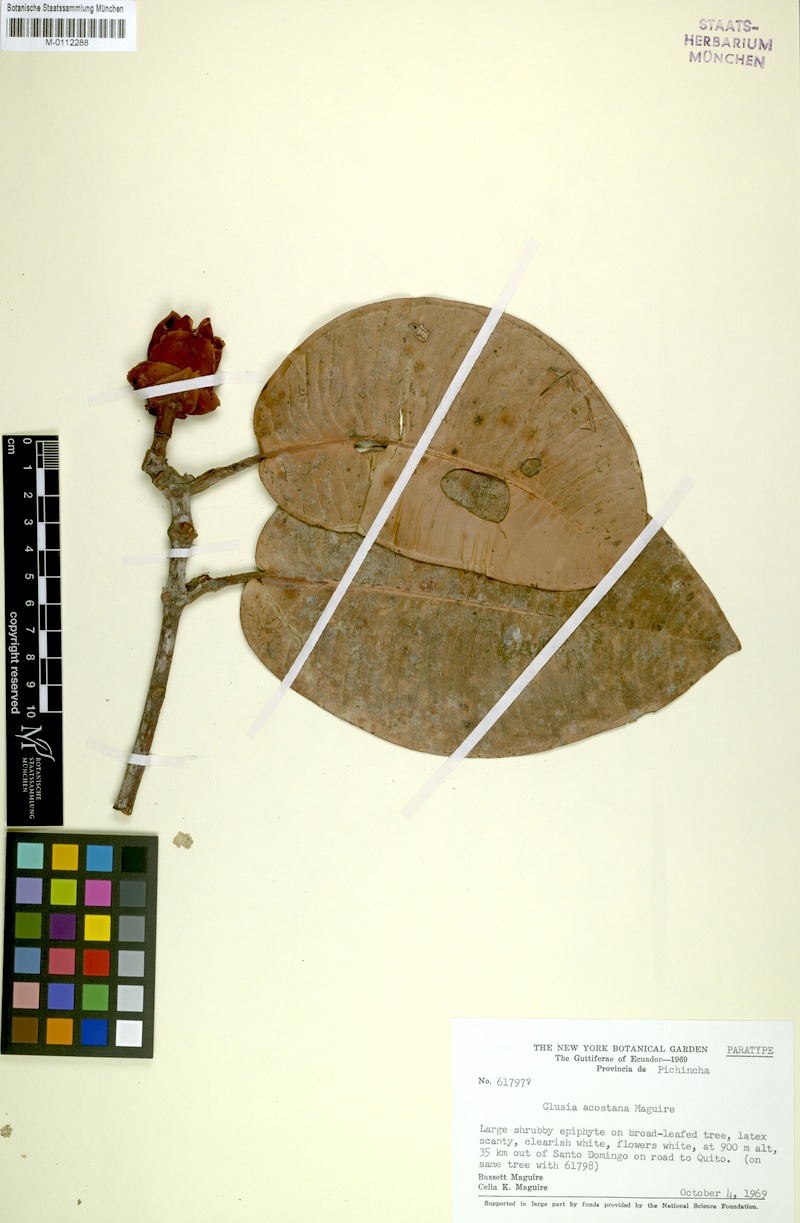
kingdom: Plantae
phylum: Tracheophyta
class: Magnoliopsida
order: Malpighiales
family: Clusiaceae
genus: Clusia
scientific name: Clusia acostana
